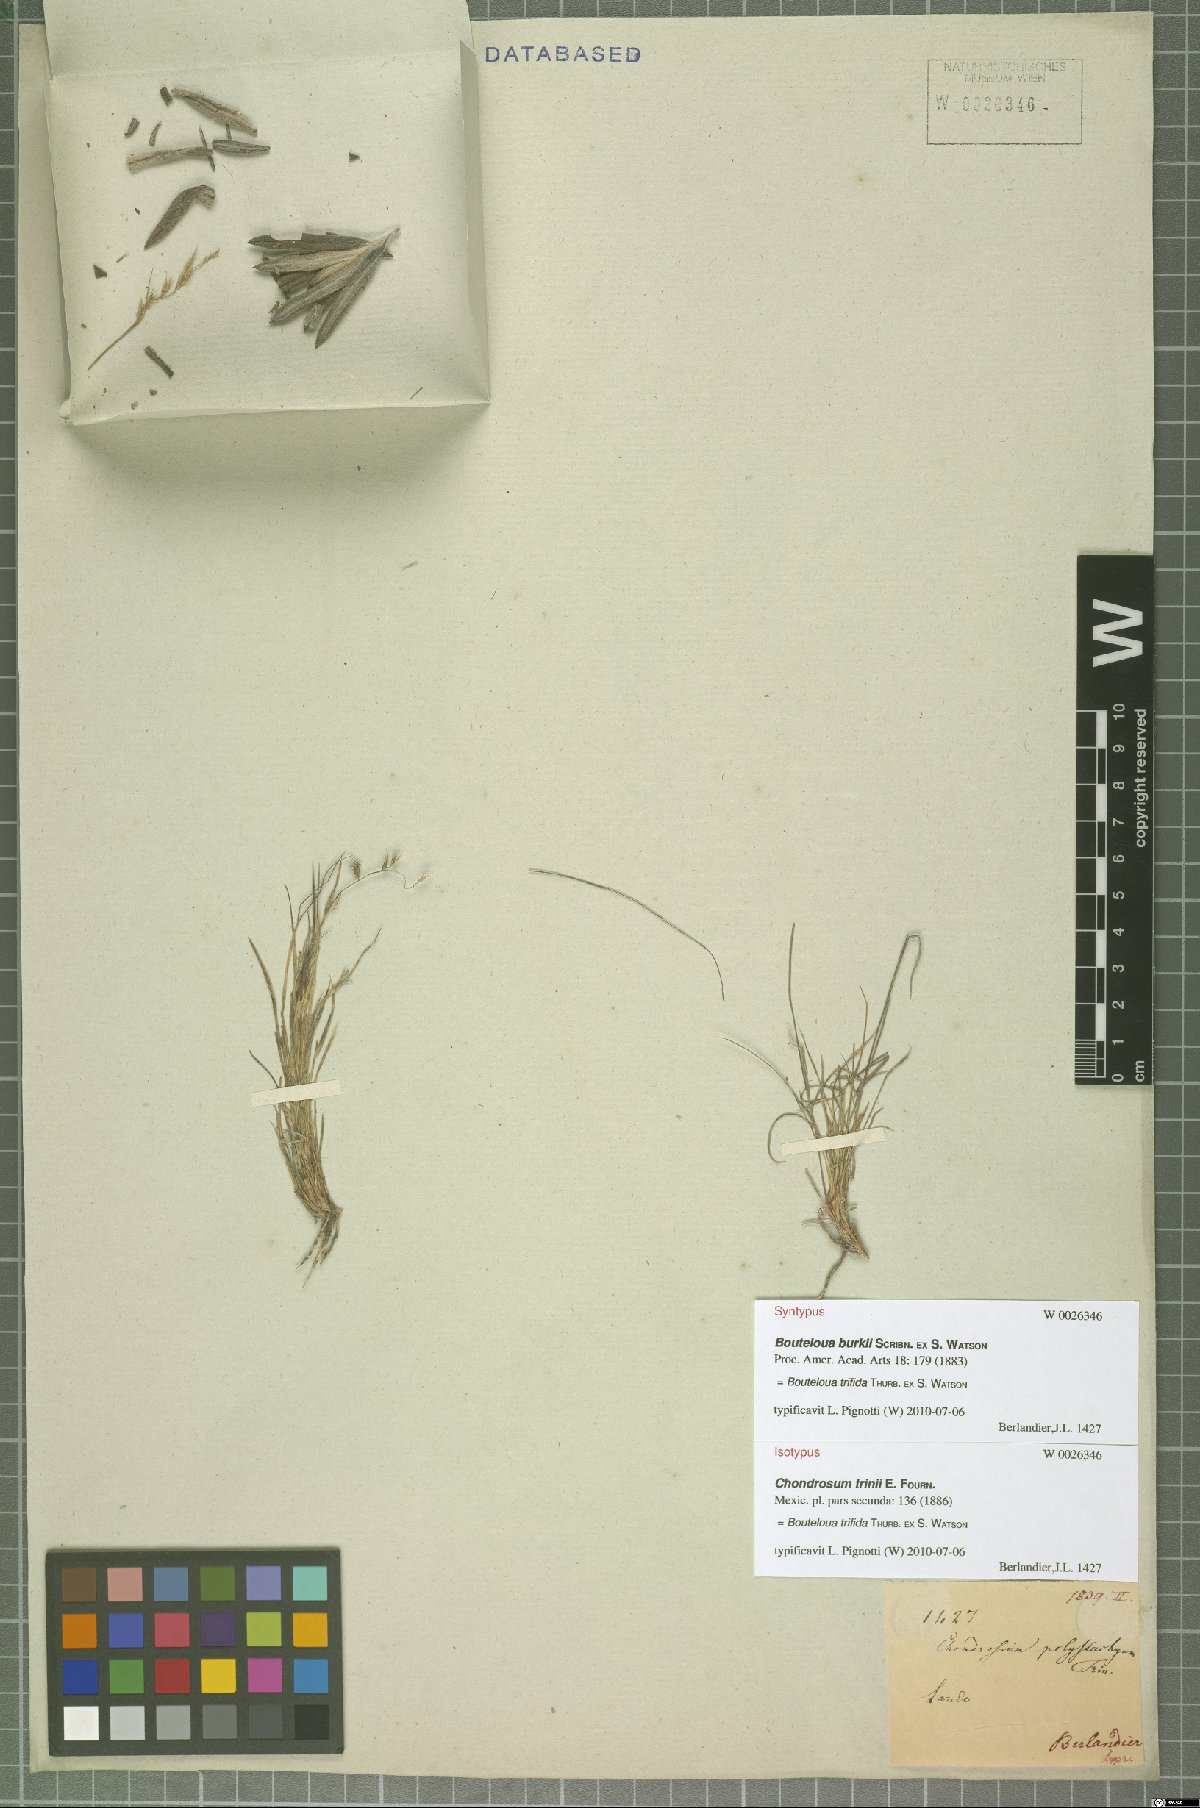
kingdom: Plantae
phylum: Tracheophyta
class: Liliopsida
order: Poales
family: Poaceae
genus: Bouteloua
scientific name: Bouteloua trifida
